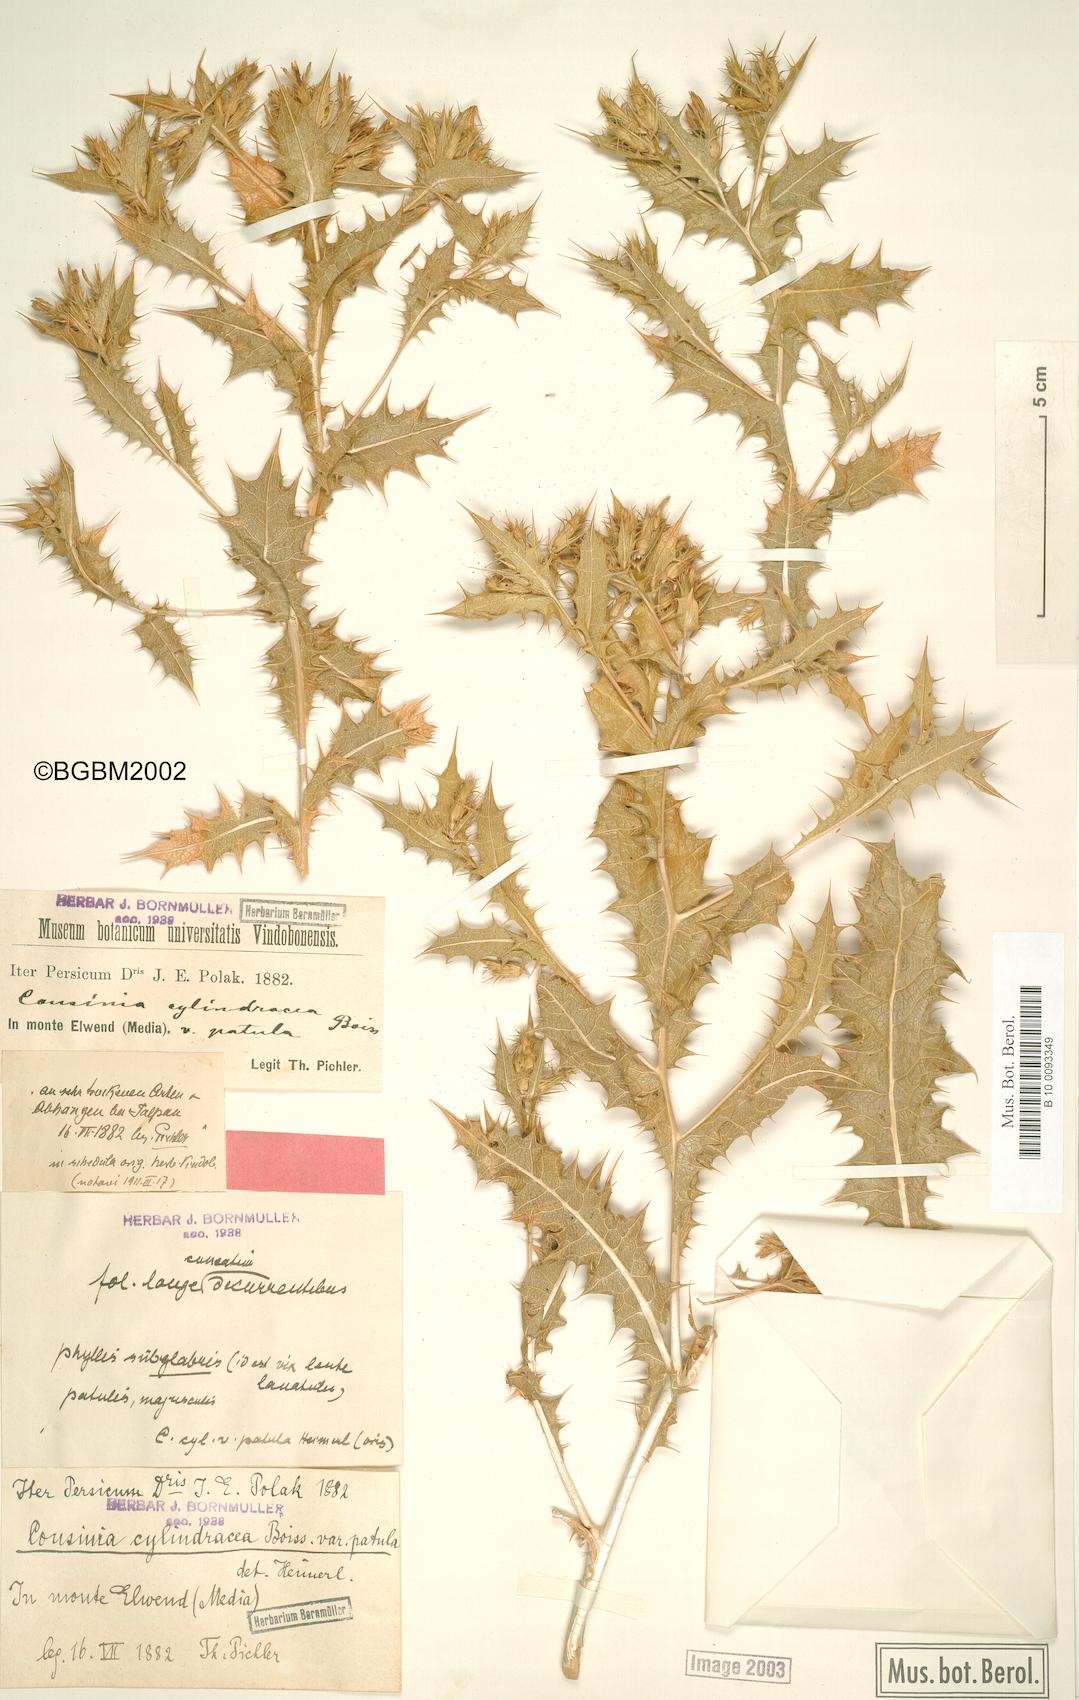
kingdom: Plantae
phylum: Tracheophyta
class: Magnoliopsida
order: Asterales
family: Asteraceae
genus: Cousinia
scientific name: Cousinia cylindracea
